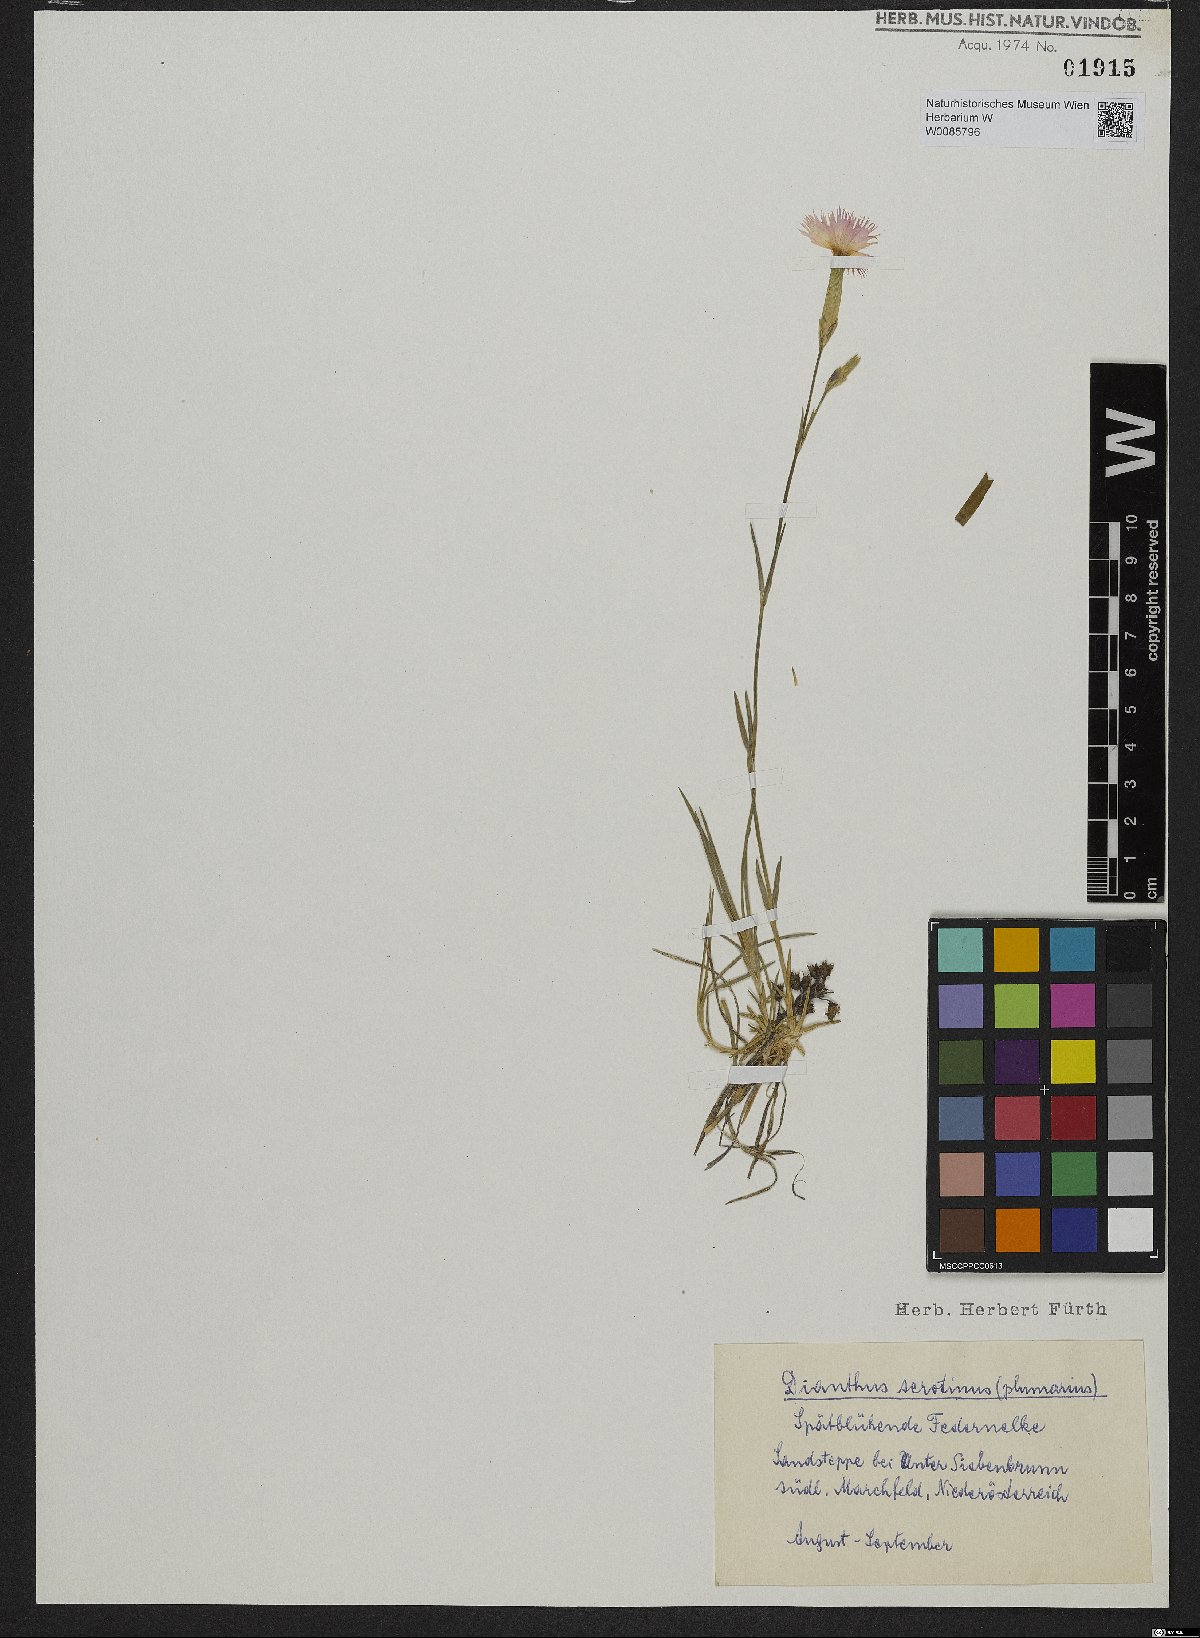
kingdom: Plantae
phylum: Tracheophyta
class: Magnoliopsida
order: Caryophyllales
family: Caryophyllaceae
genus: Dianthus
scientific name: Dianthus serotinus
